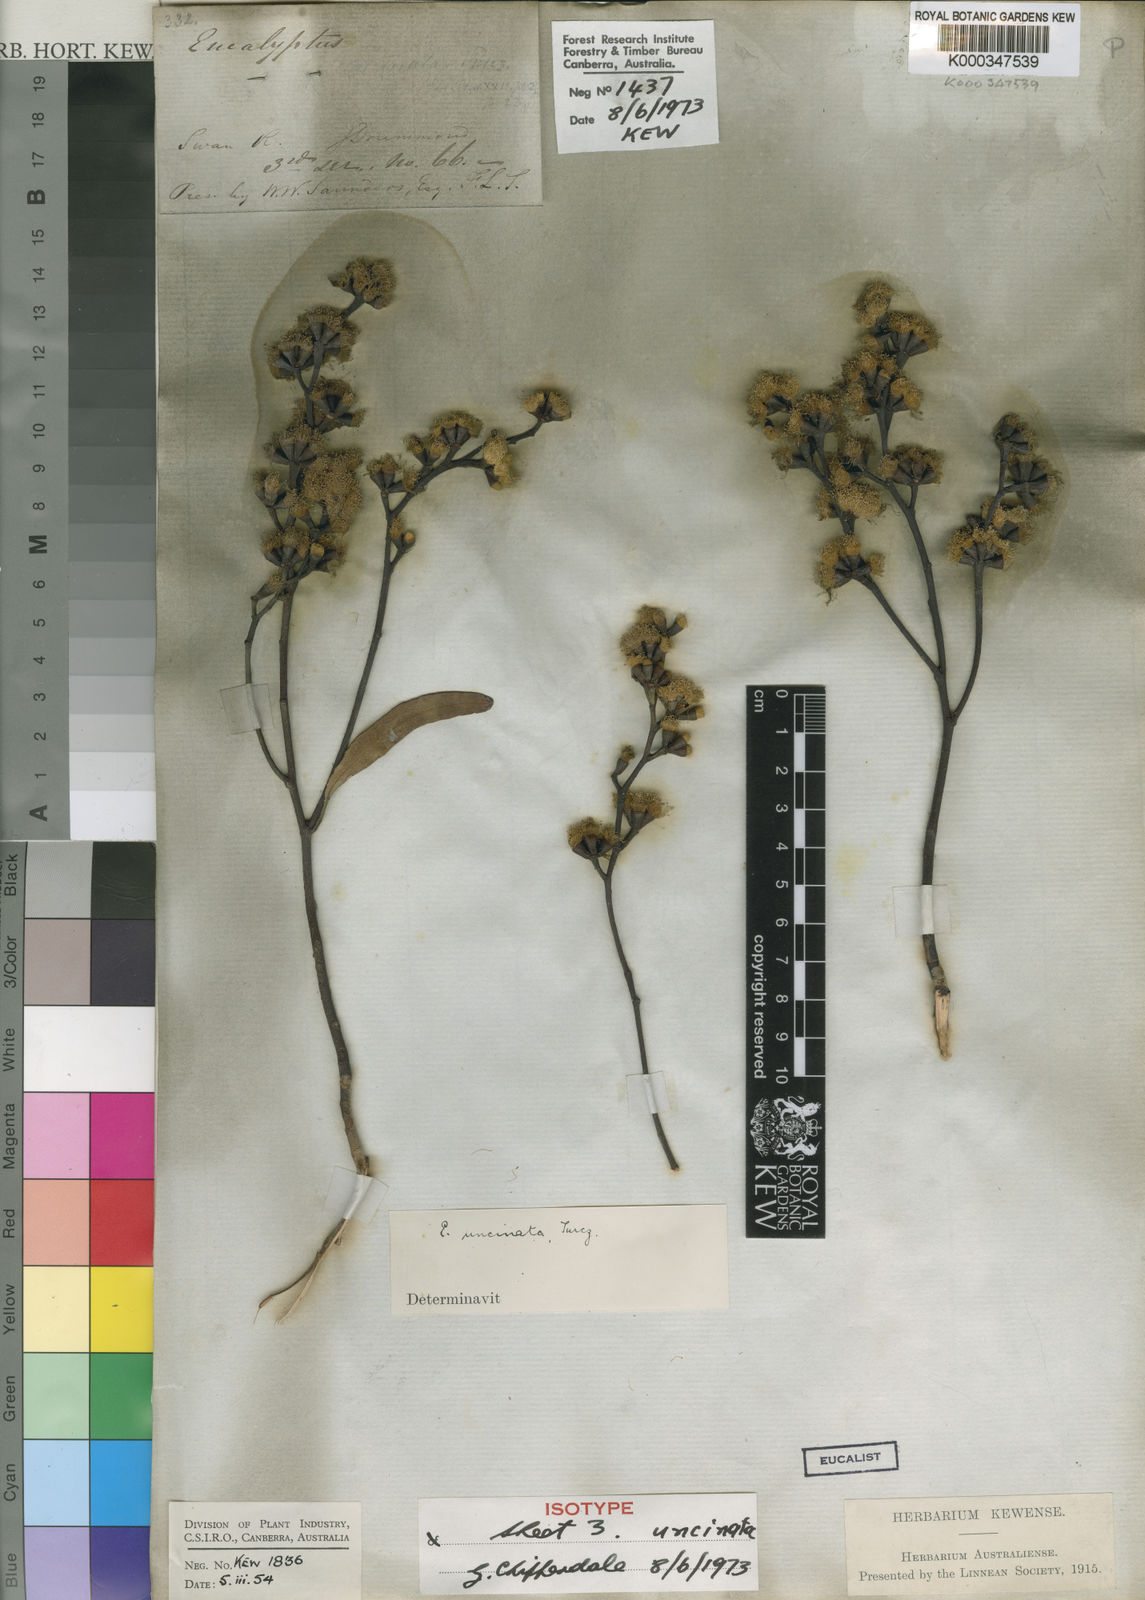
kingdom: Plantae
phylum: Tracheophyta
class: Magnoliopsida
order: Myrtales
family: Myrtaceae
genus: Eucalyptus
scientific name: Eucalyptus uncinata
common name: Hooked-leaved mallee
